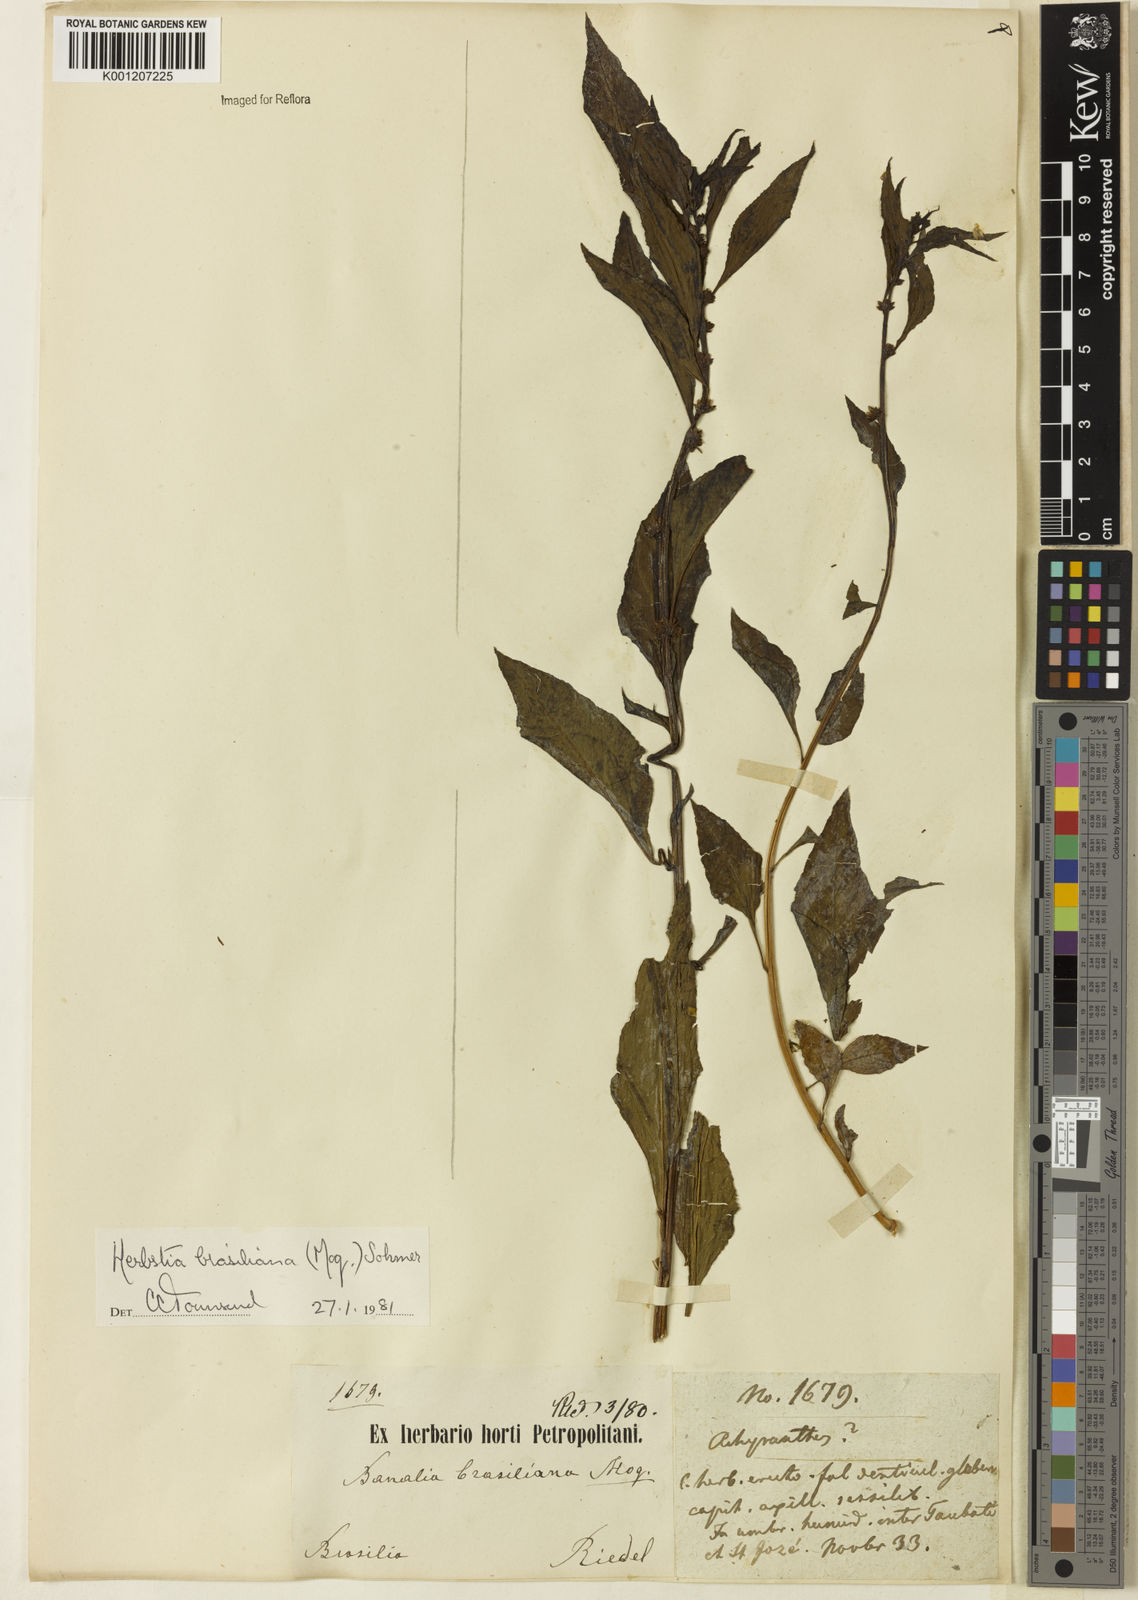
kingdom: Plantae
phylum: Tracheophyta
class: Magnoliopsida
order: Caryophyllales
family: Amaranthaceae
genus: Herbstia
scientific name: Herbstia brasiliana
